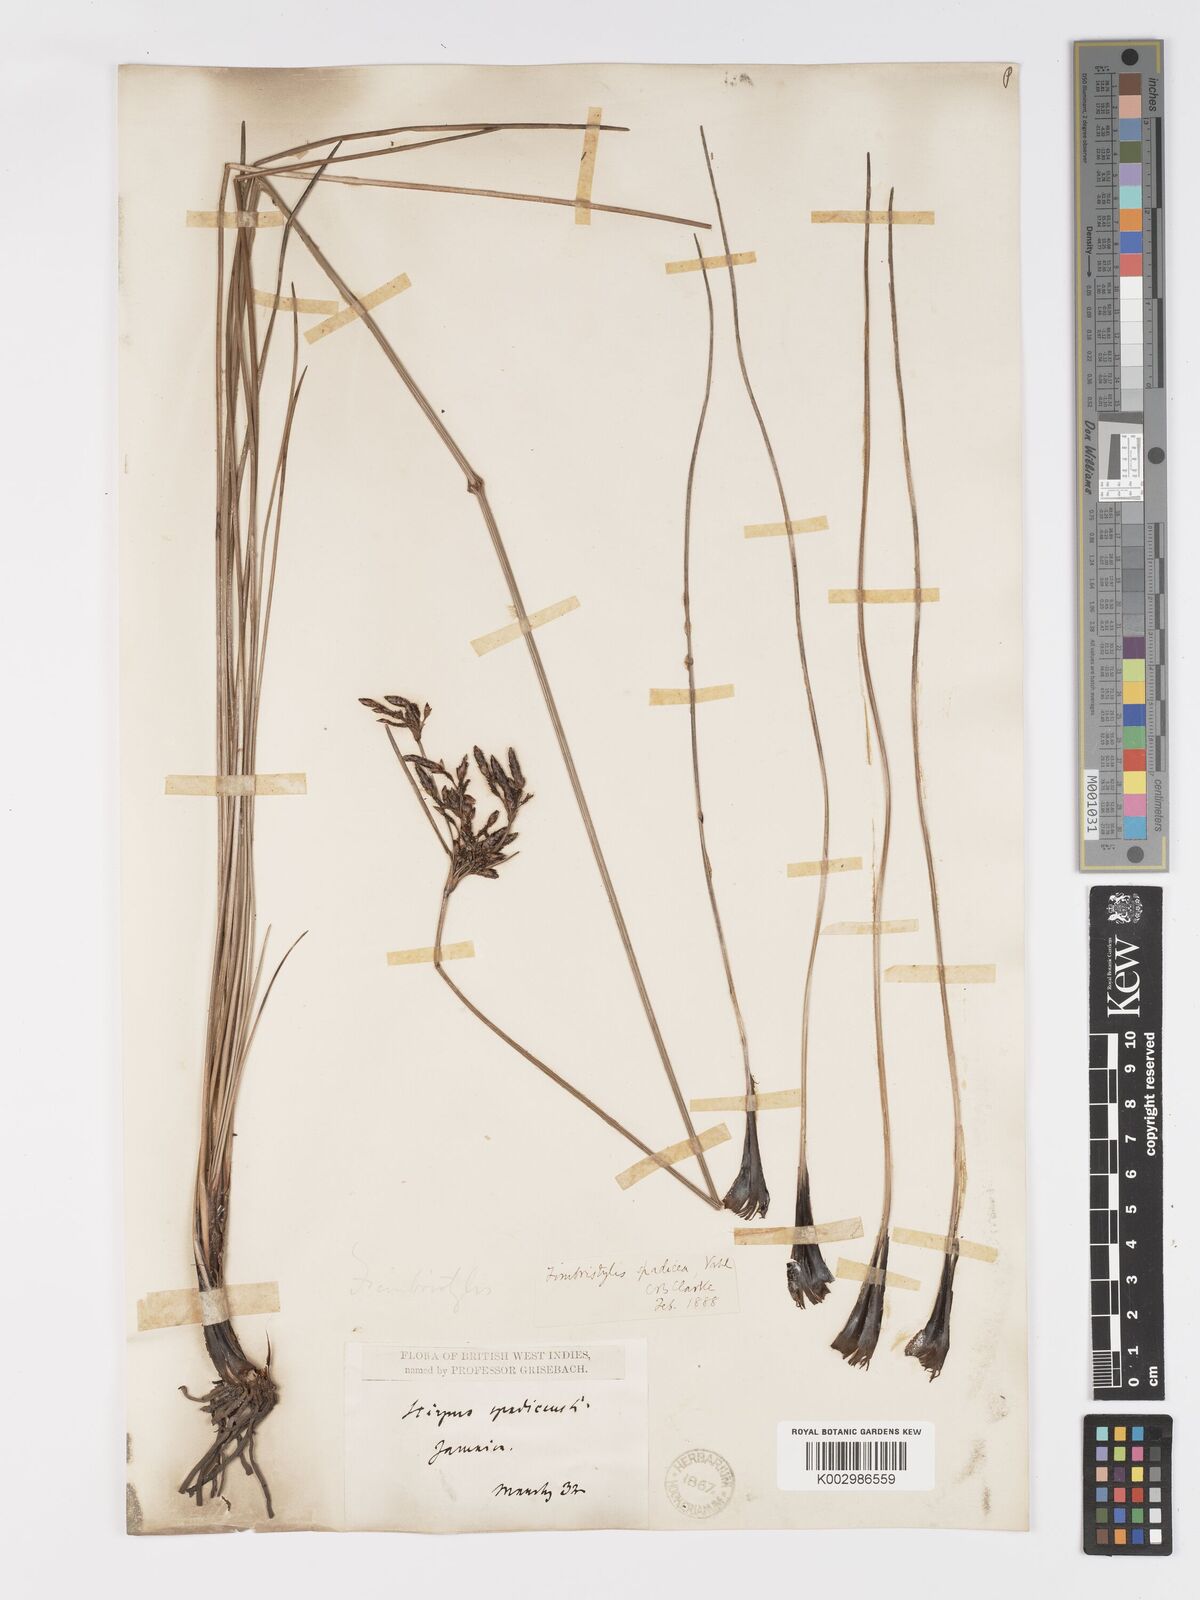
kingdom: Plantae
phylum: Tracheophyta
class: Liliopsida
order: Poales
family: Cyperaceae
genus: Fimbristylis
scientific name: Fimbristylis spadicea
